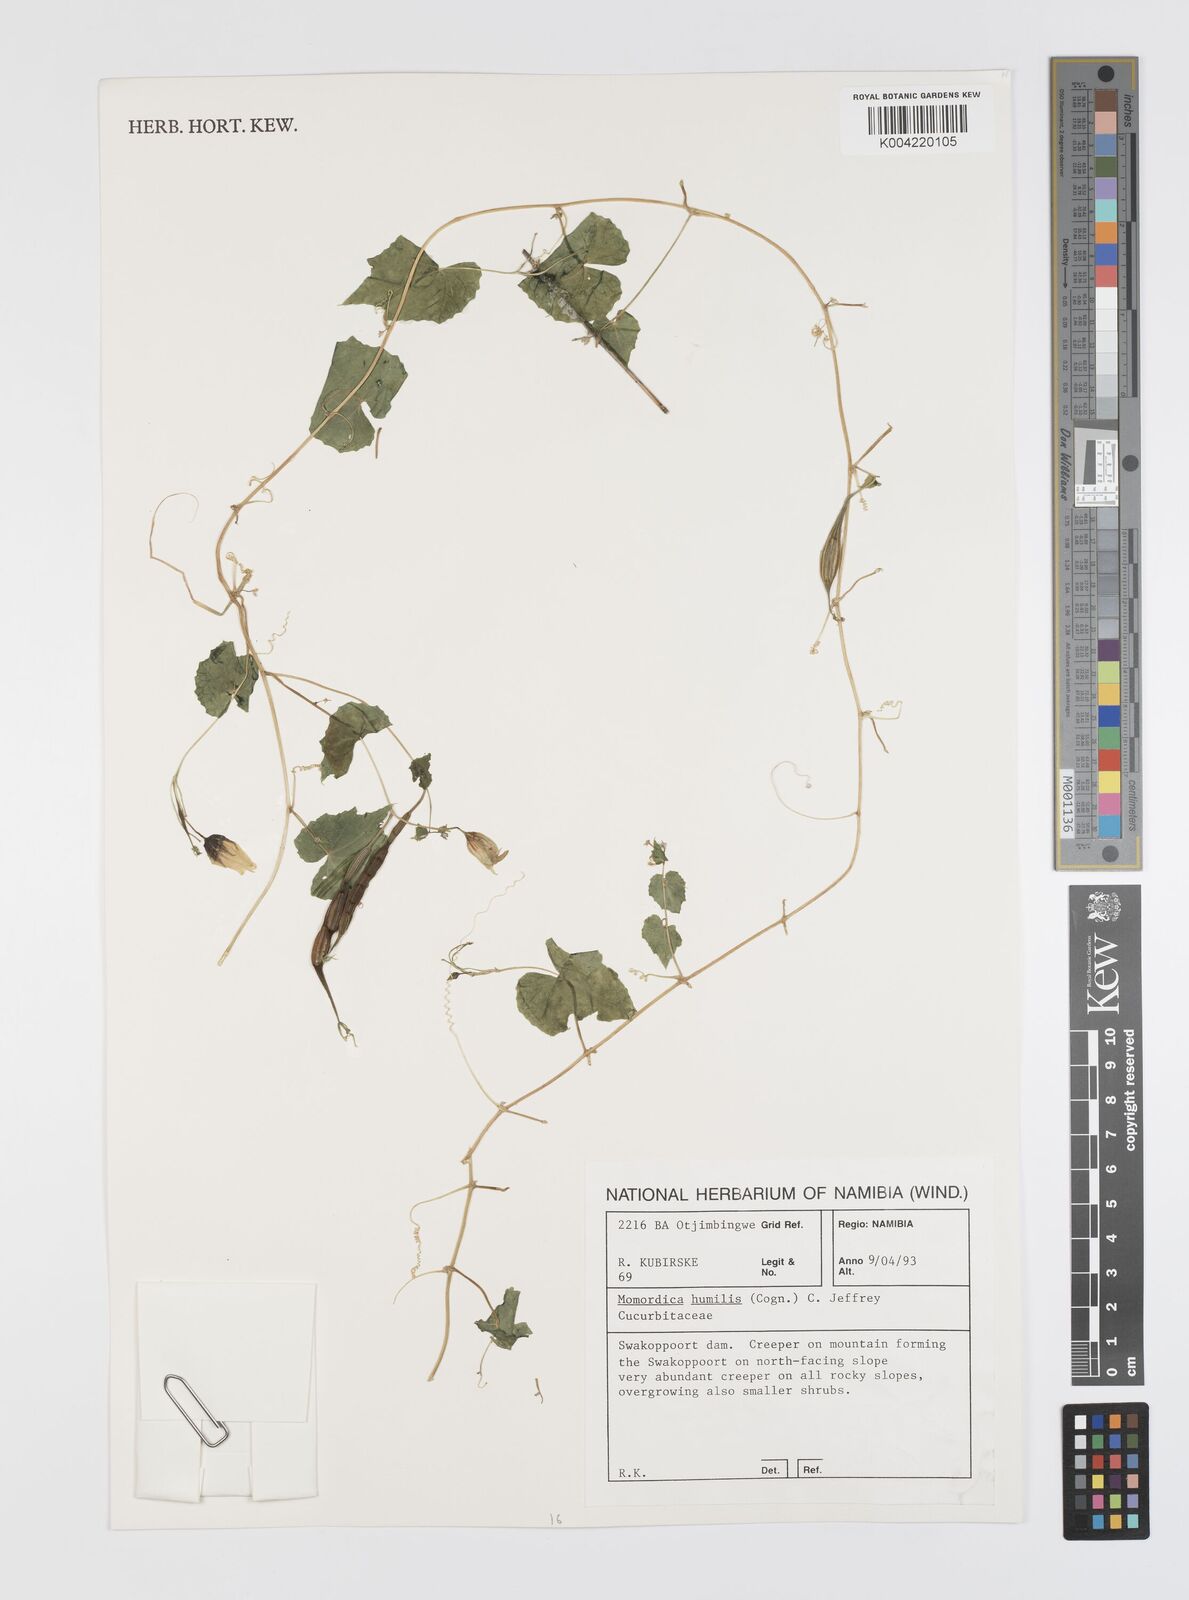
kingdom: Plantae
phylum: Tracheophyta
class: Magnoliopsida
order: Cucurbitales
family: Cucurbitaceae
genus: Momordica
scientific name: Momordica
